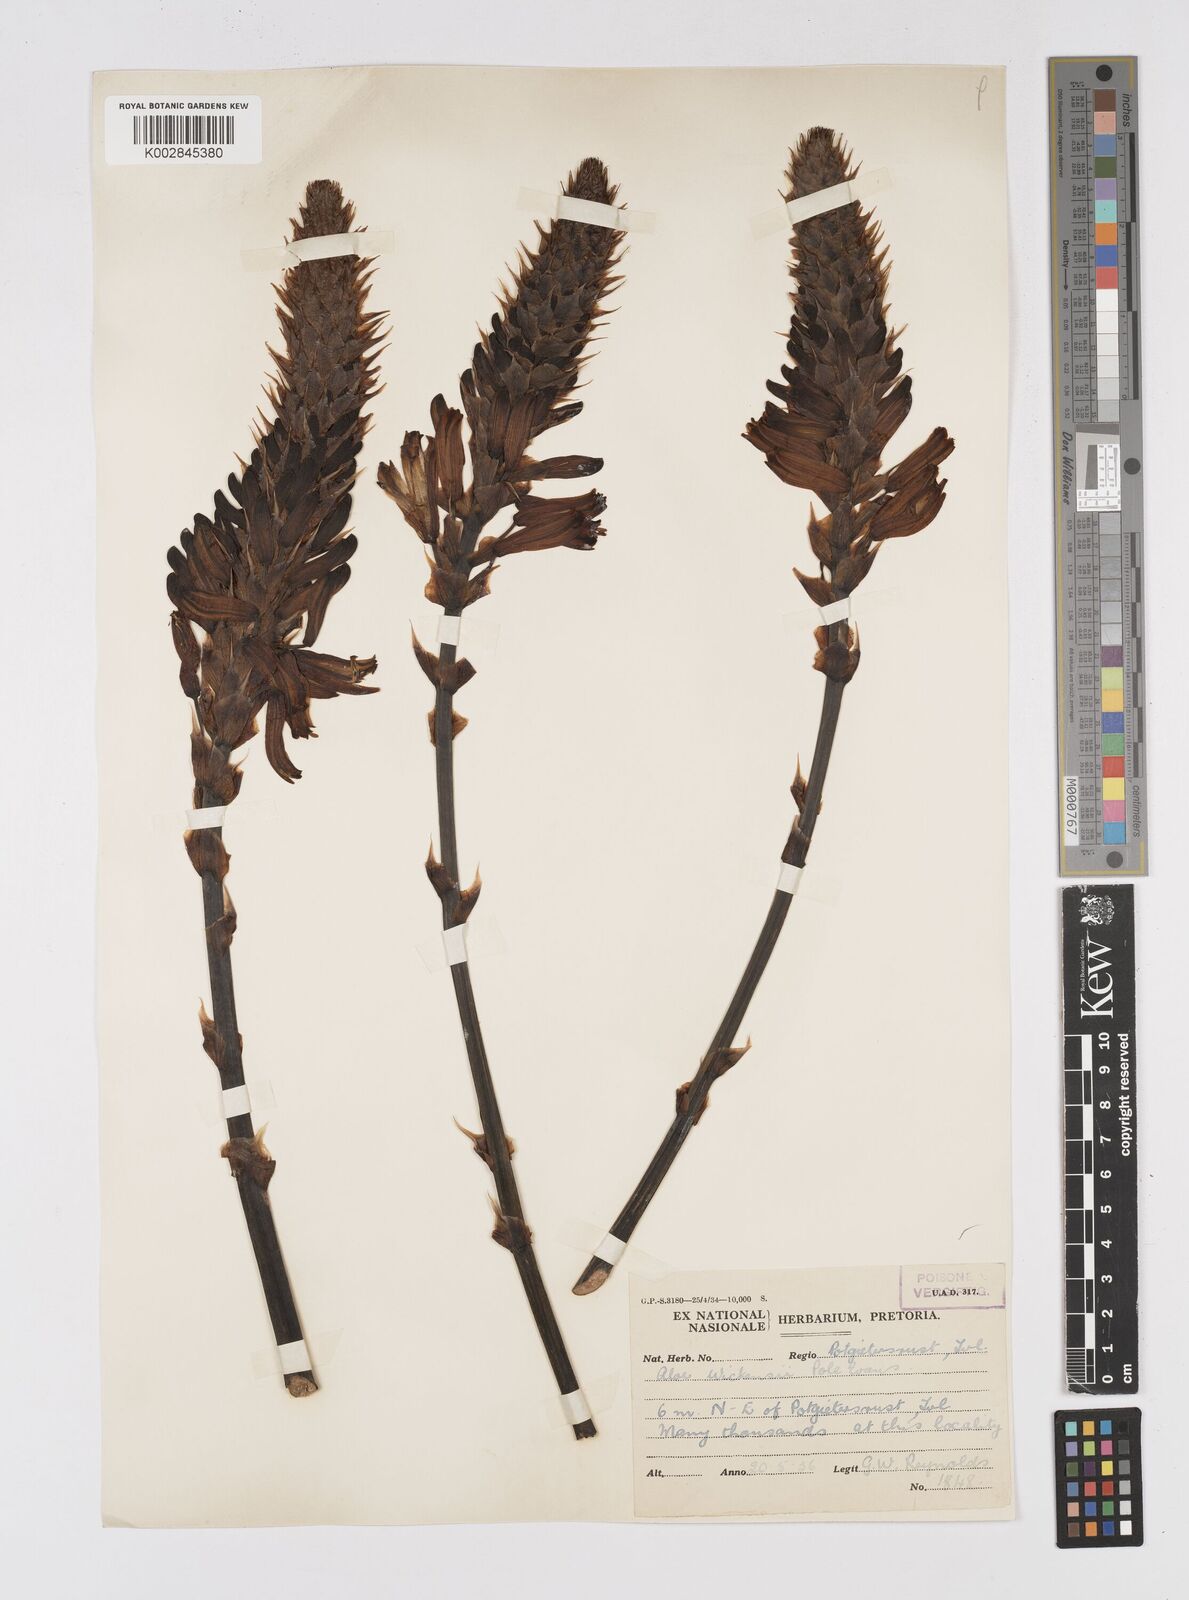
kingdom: Plantae
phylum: Tracheophyta
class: Liliopsida
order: Asparagales
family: Asphodelaceae
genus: Aloe
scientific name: Aloe wickensii
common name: Wickens' aloe
